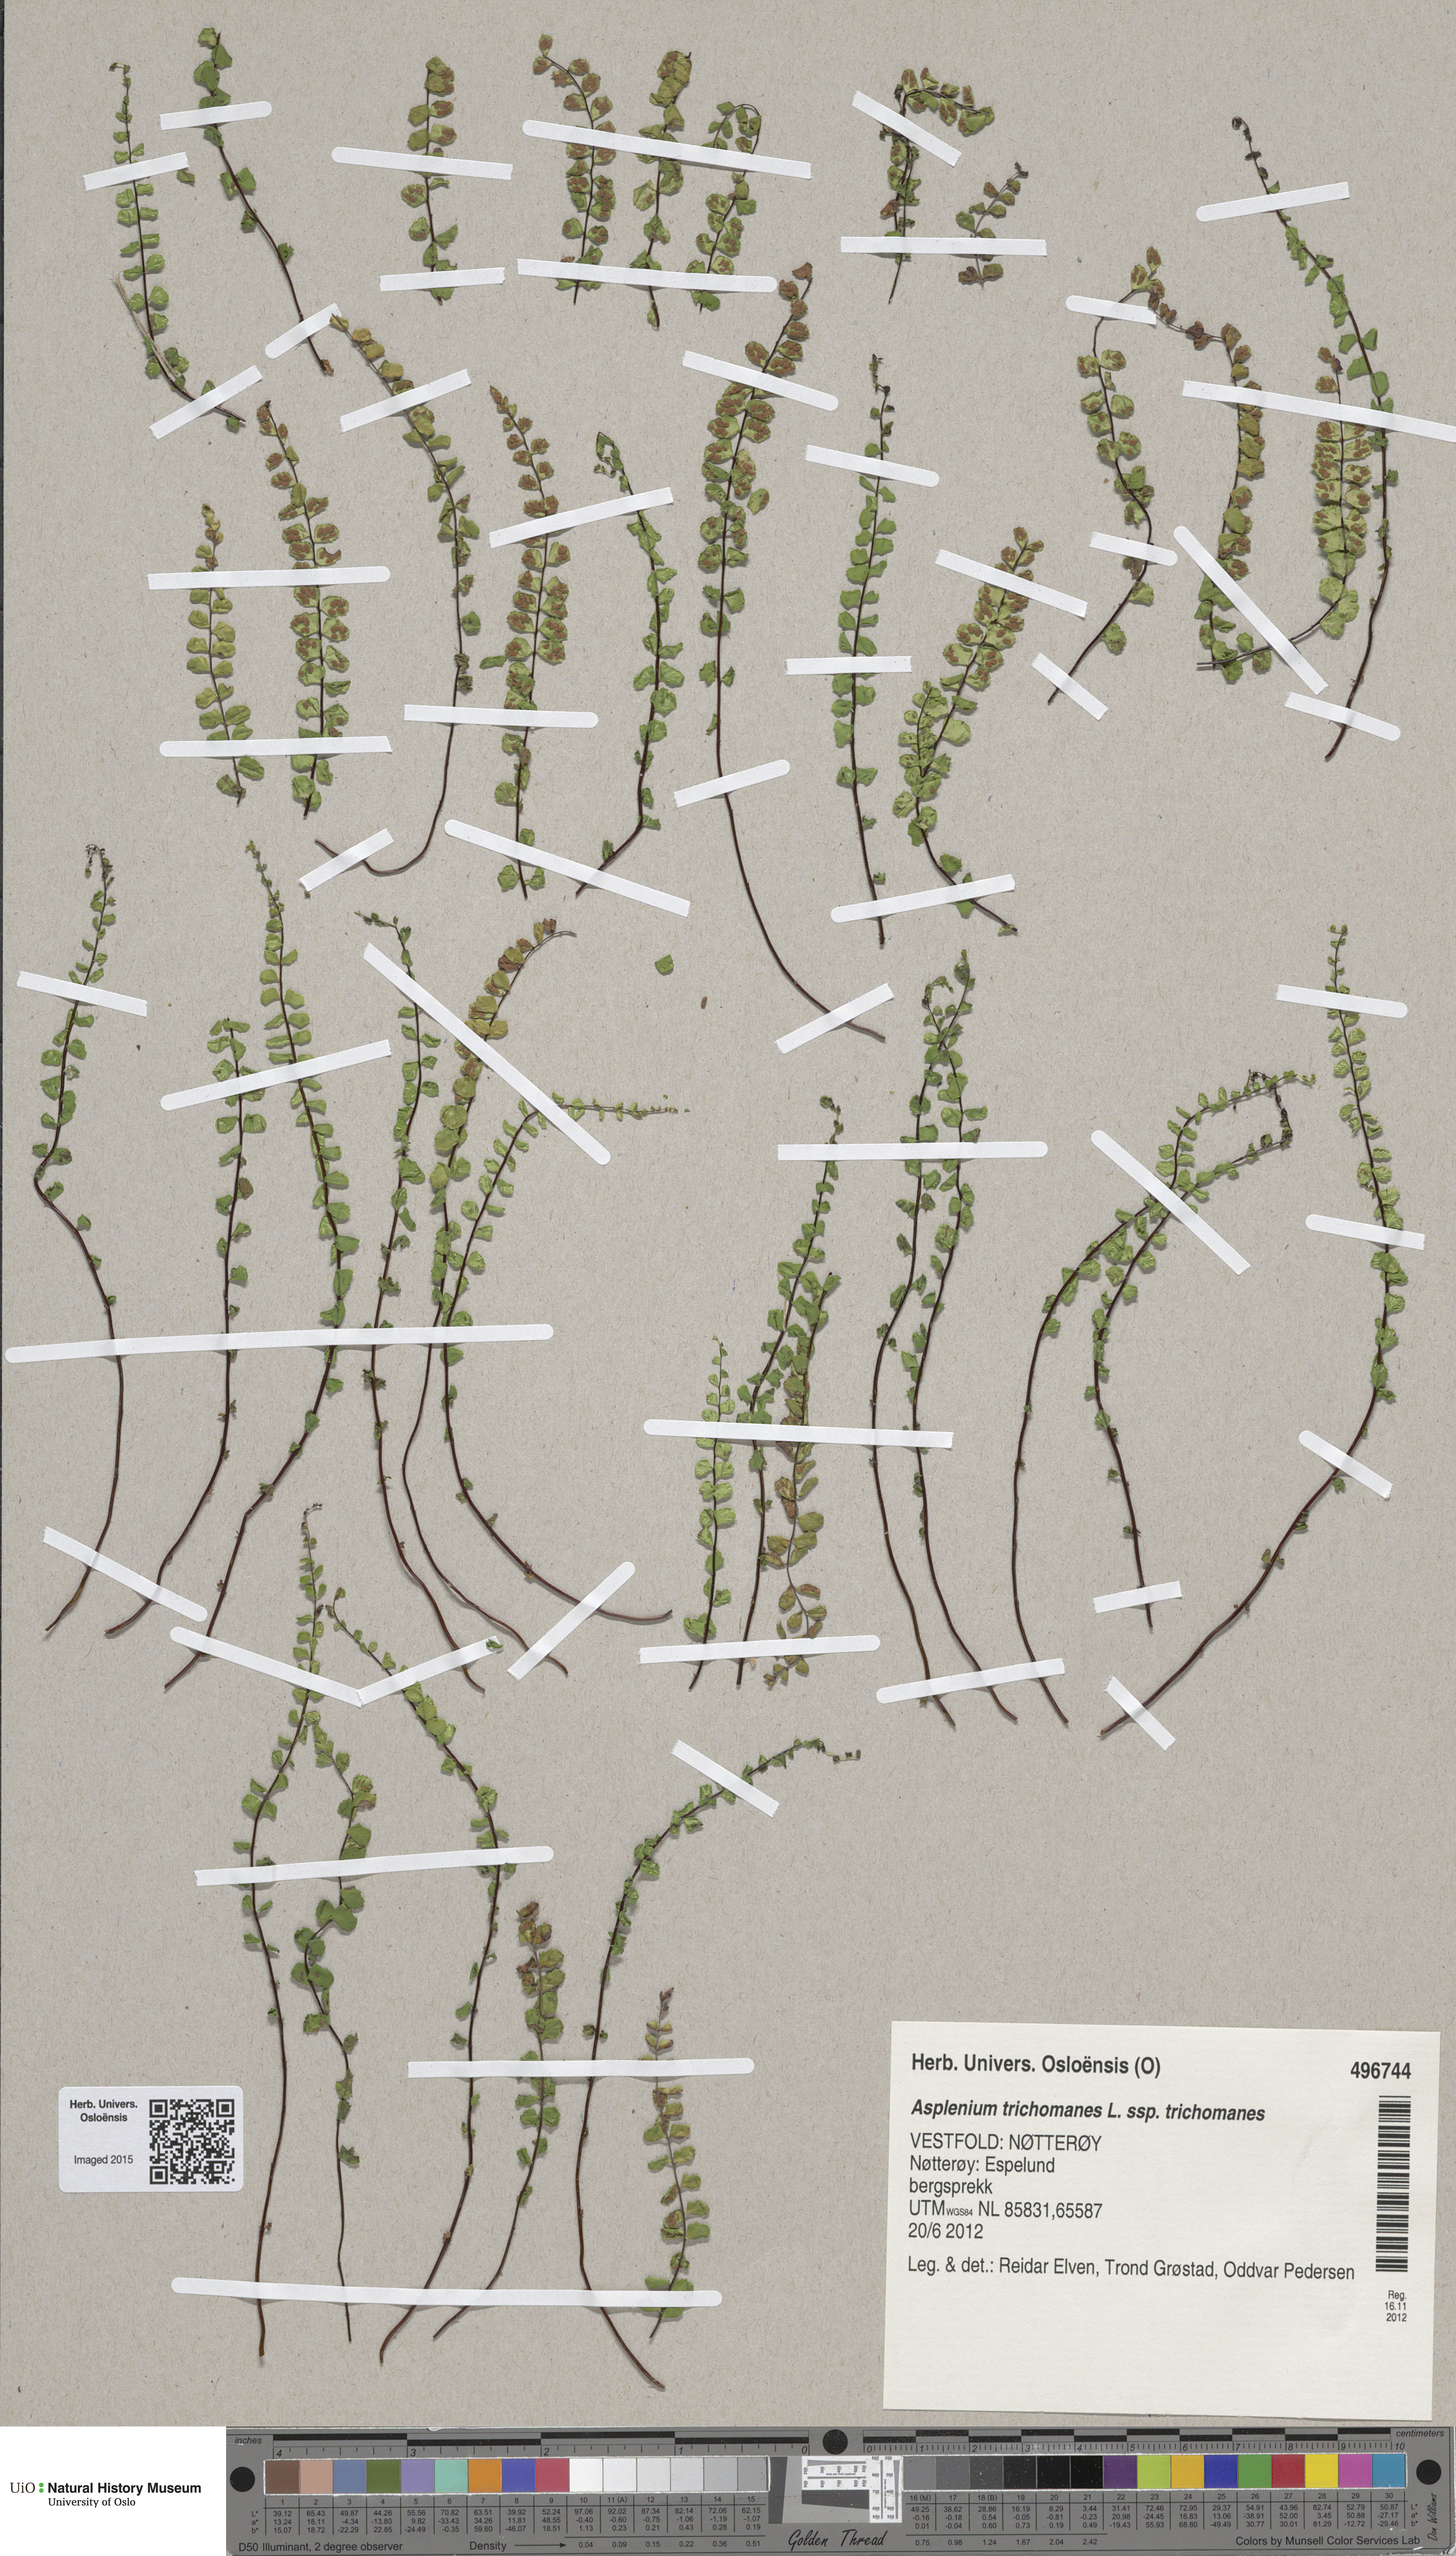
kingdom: Plantae
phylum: Tracheophyta
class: Polypodiopsida
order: Polypodiales
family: Aspleniaceae
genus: Asplenium
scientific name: Asplenium trichomanes
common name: Maidenhair spleenwort
